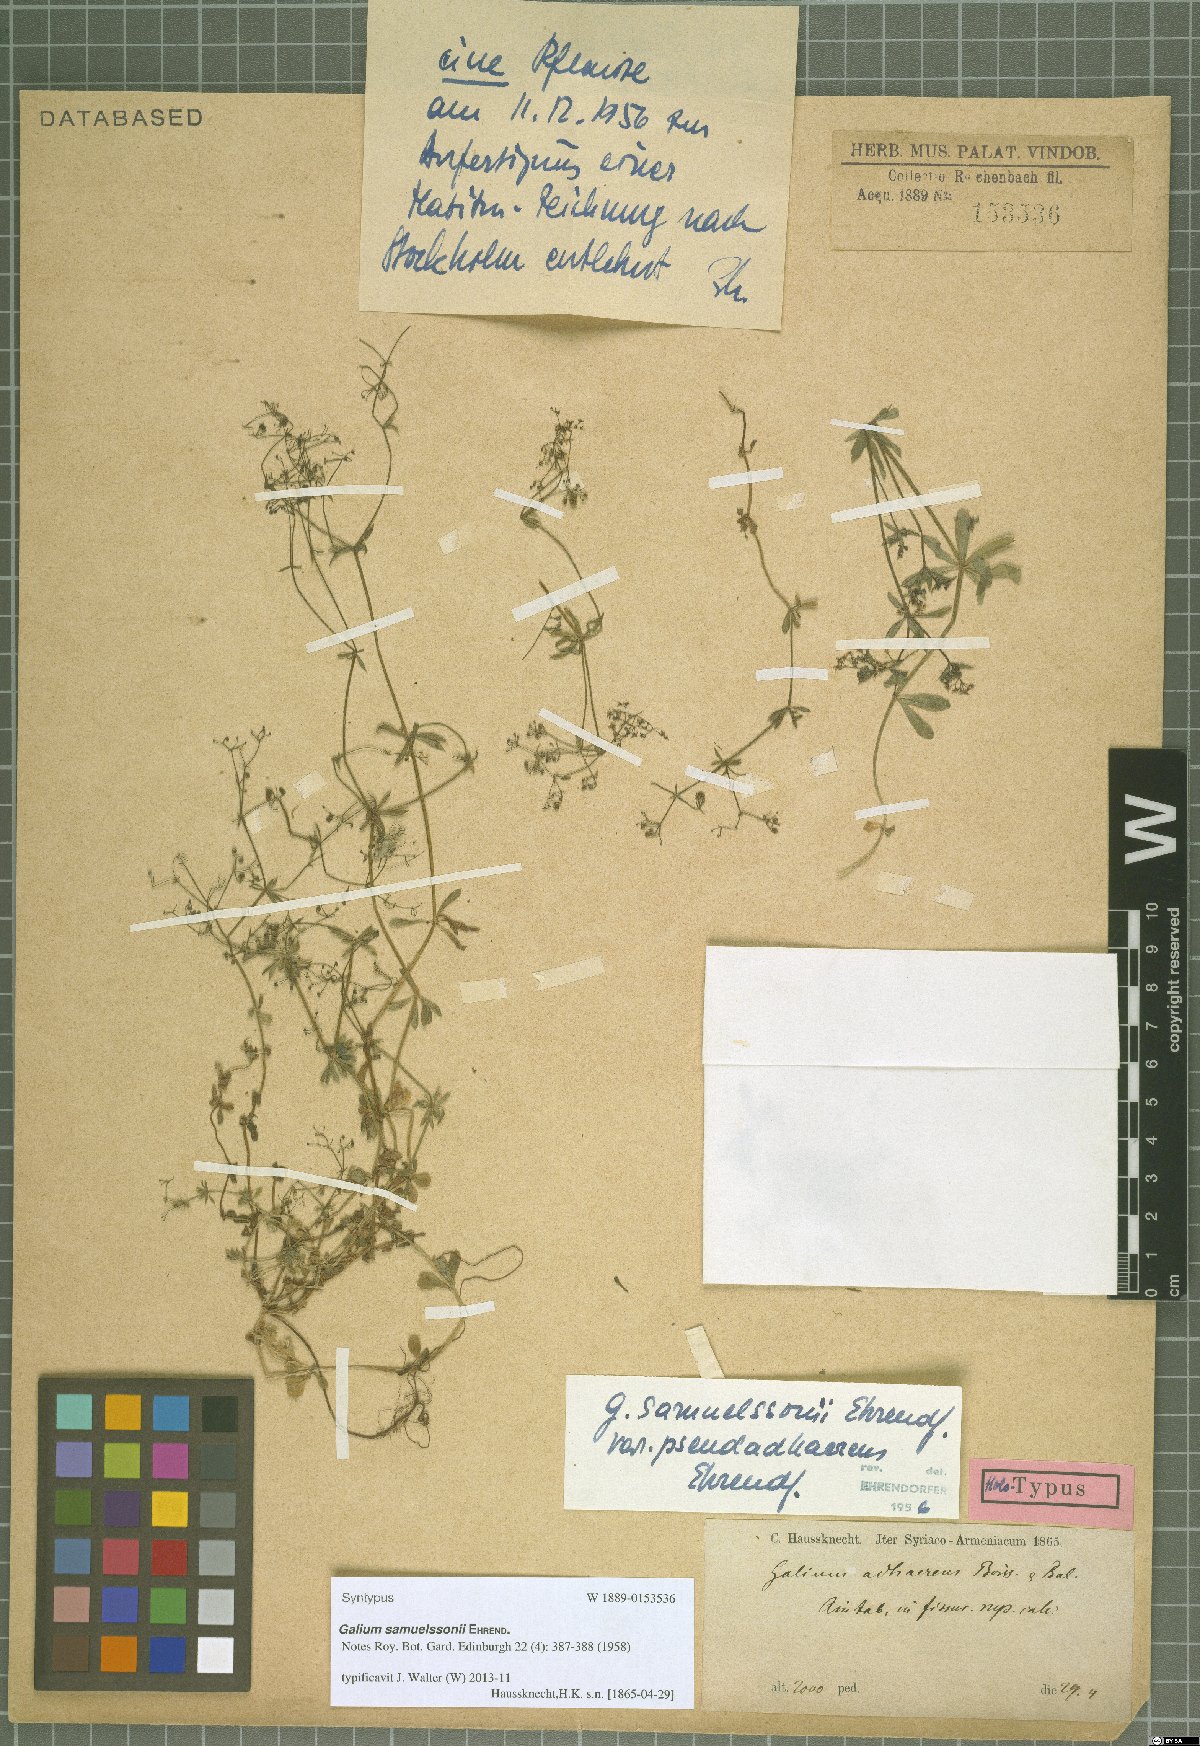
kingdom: Plantae
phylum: Tracheophyta
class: Magnoliopsida
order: Gentianales
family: Rubiaceae
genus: Galium
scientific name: Galium samuelssonii
